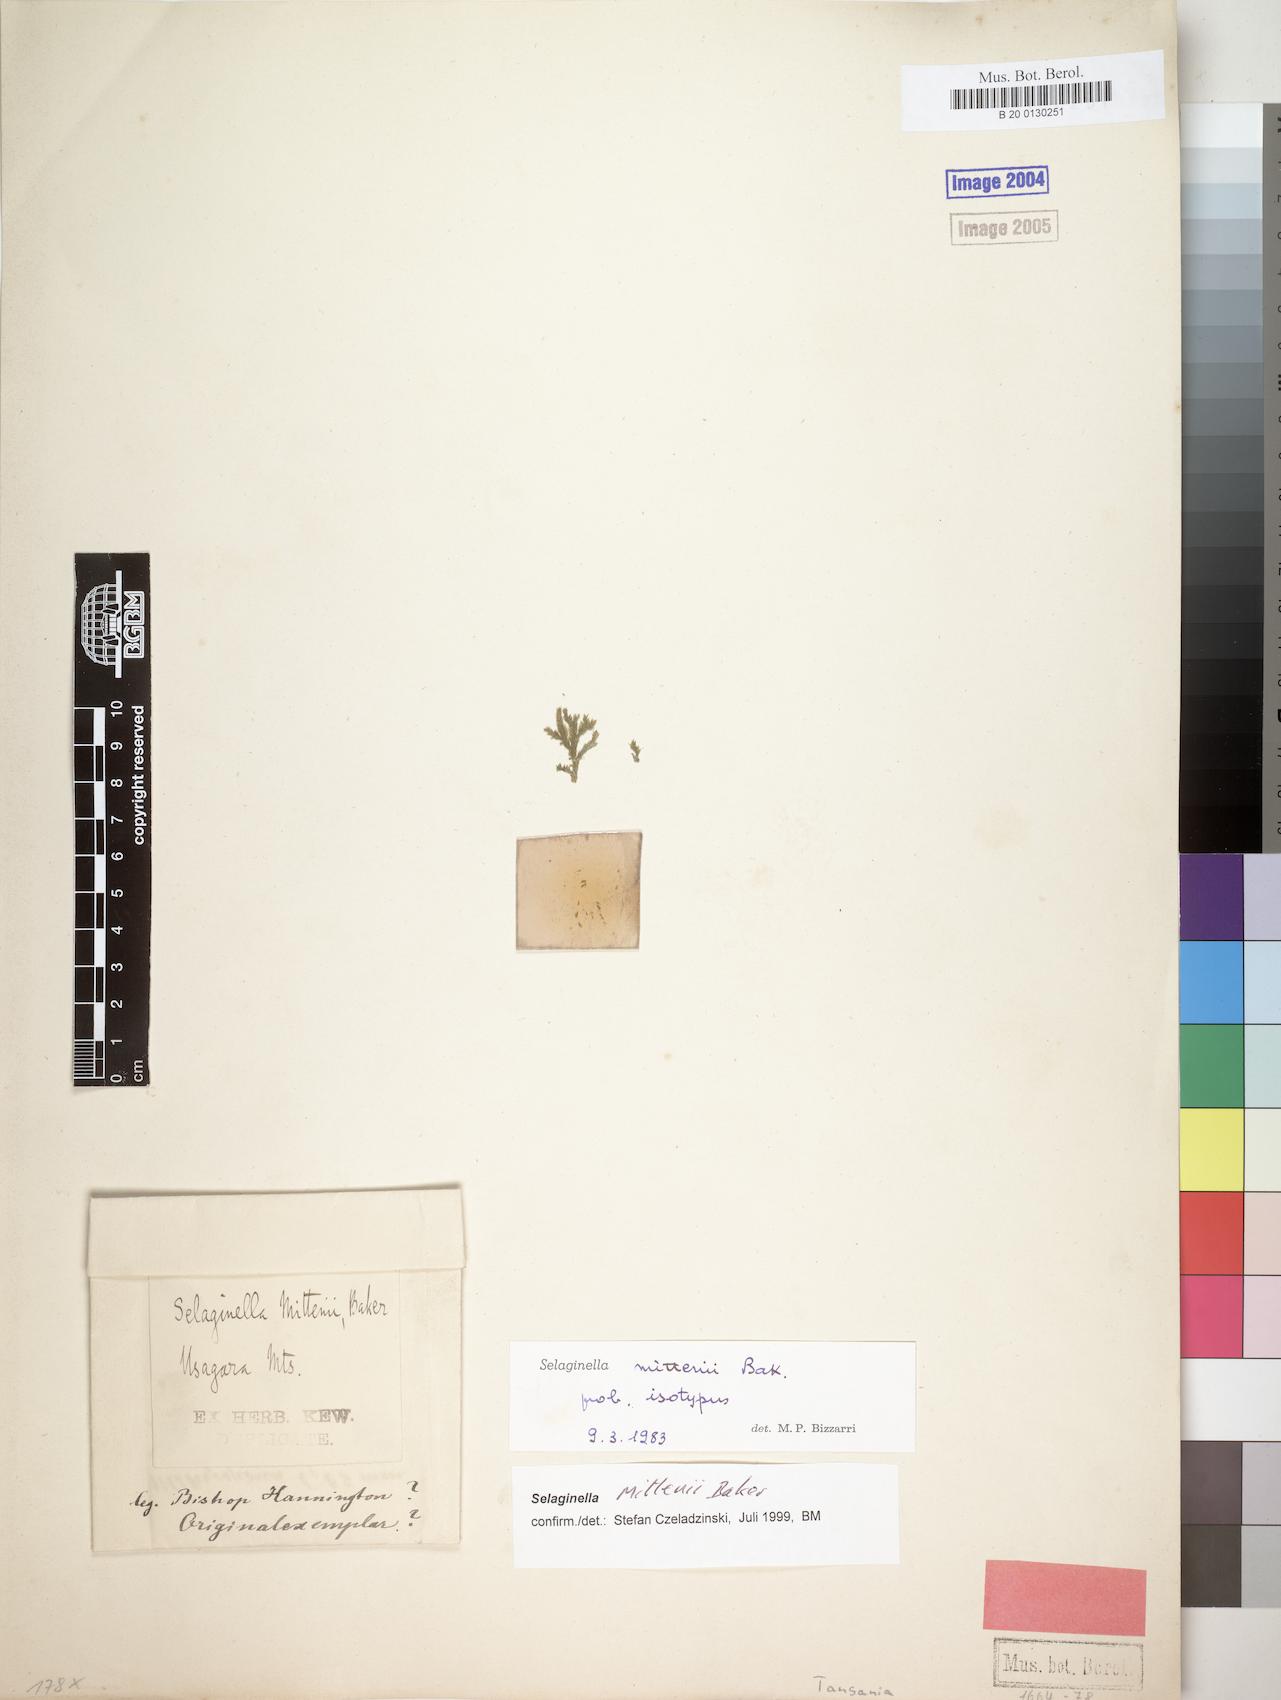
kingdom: Plantae
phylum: Tracheophyta
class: Lycopodiopsida
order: Selaginellales
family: Selaginellaceae
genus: Selaginella
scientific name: Selaginella mittenii
